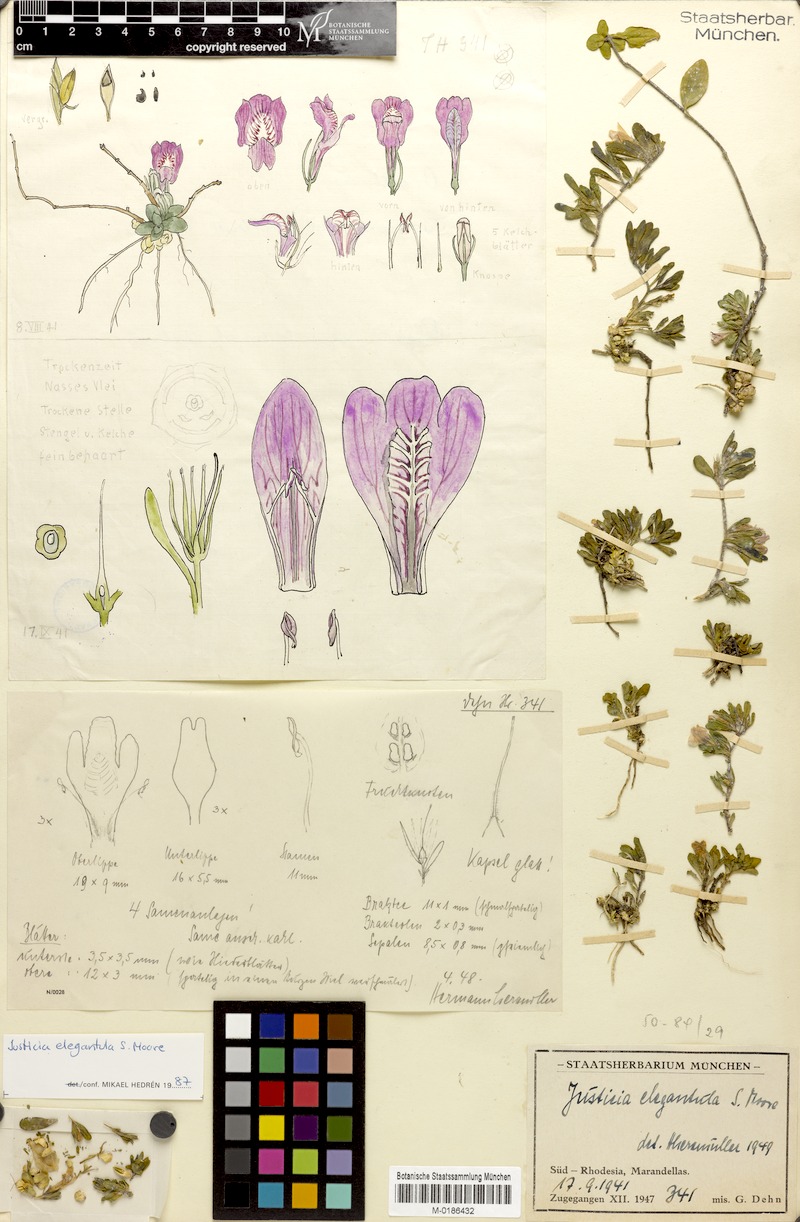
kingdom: Plantae
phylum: Tracheophyta
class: Magnoliopsida
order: Lamiales
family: Acanthaceae
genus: Justicia
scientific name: Justicia elegantula
